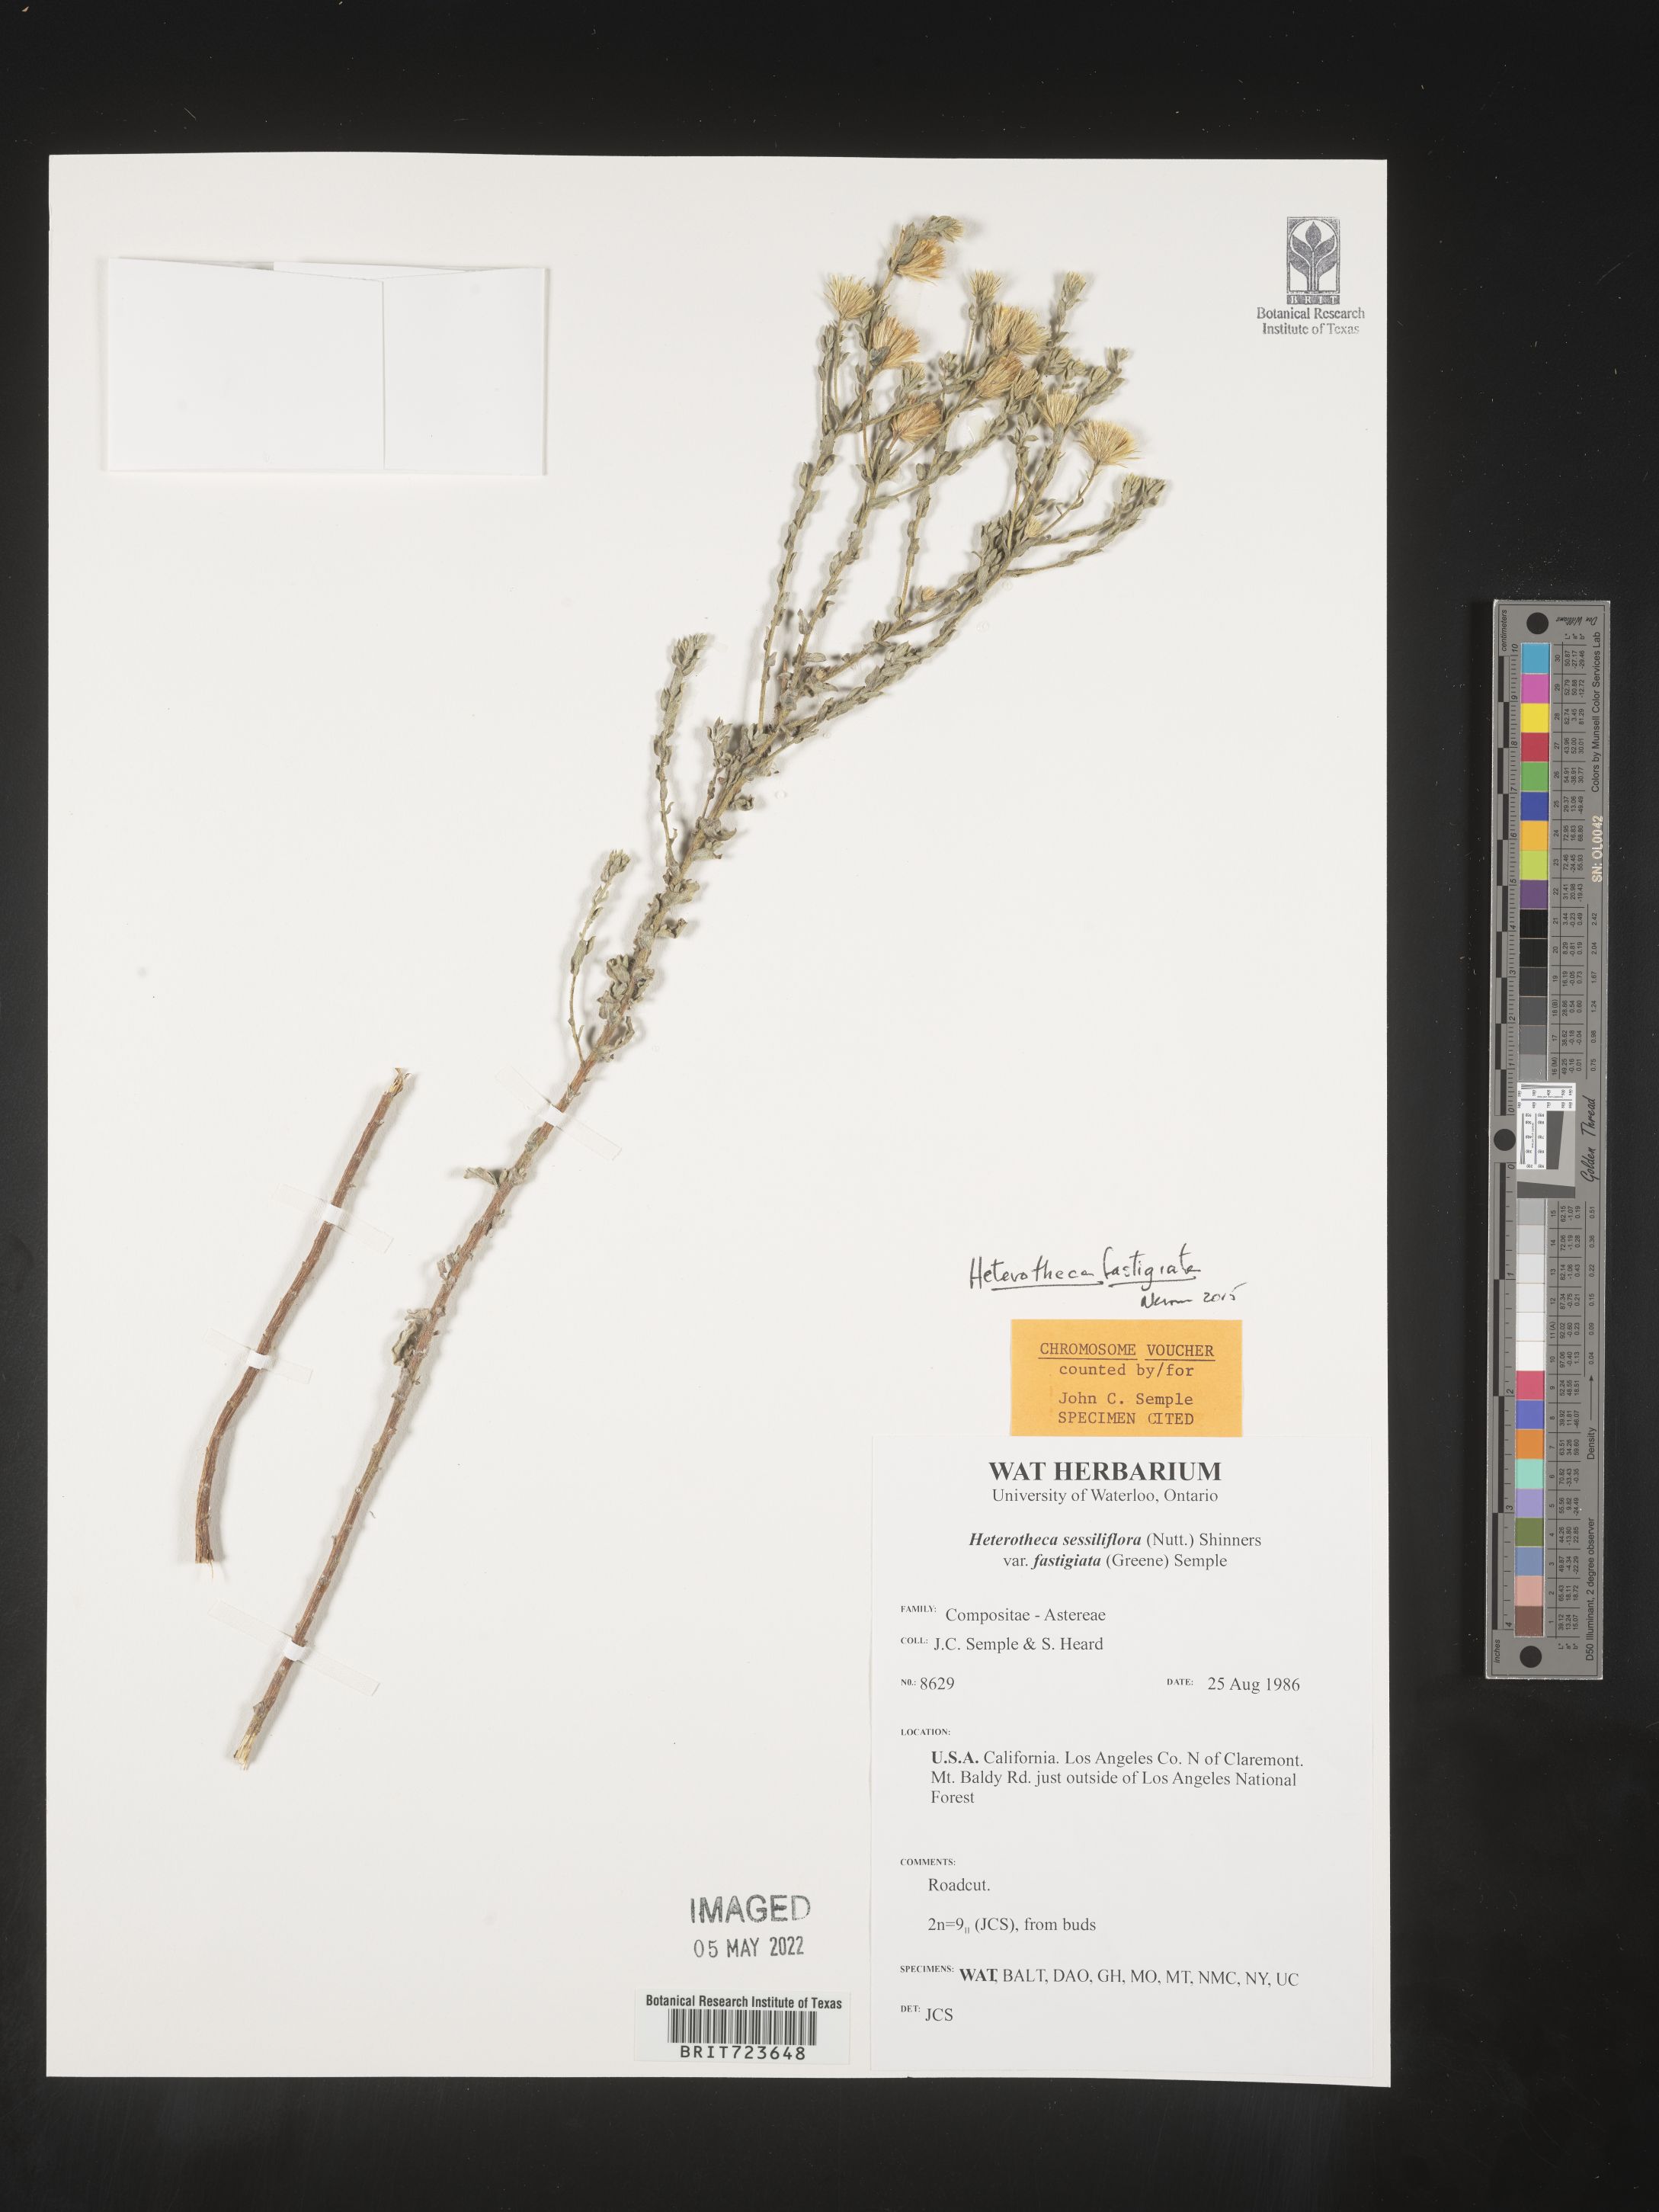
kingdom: Plantae
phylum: Tracheophyta
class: Magnoliopsida
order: Asterales
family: Asteraceae
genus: Heterotheca
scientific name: Heterotheca fastigiata
